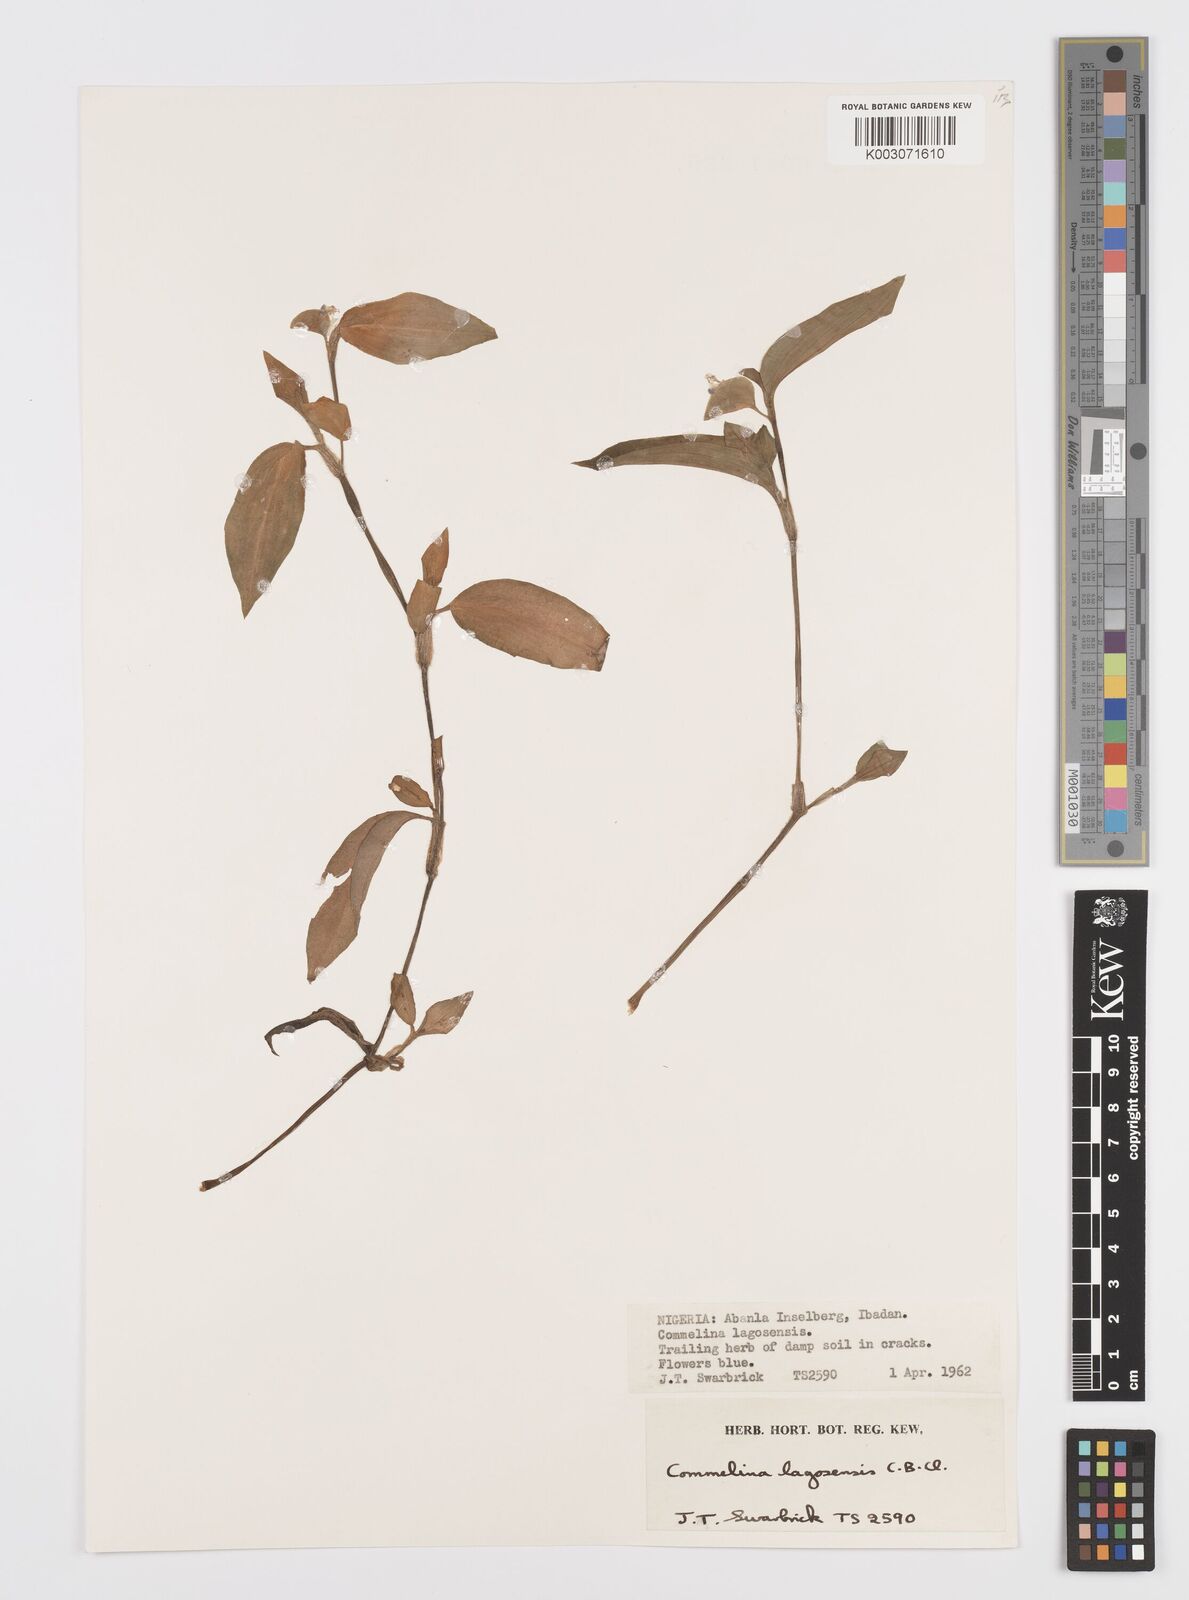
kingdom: Plantae
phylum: Tracheophyta
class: Liliopsida
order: Commelinales
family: Commelinaceae
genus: Commelina
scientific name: Commelina bracteosa
